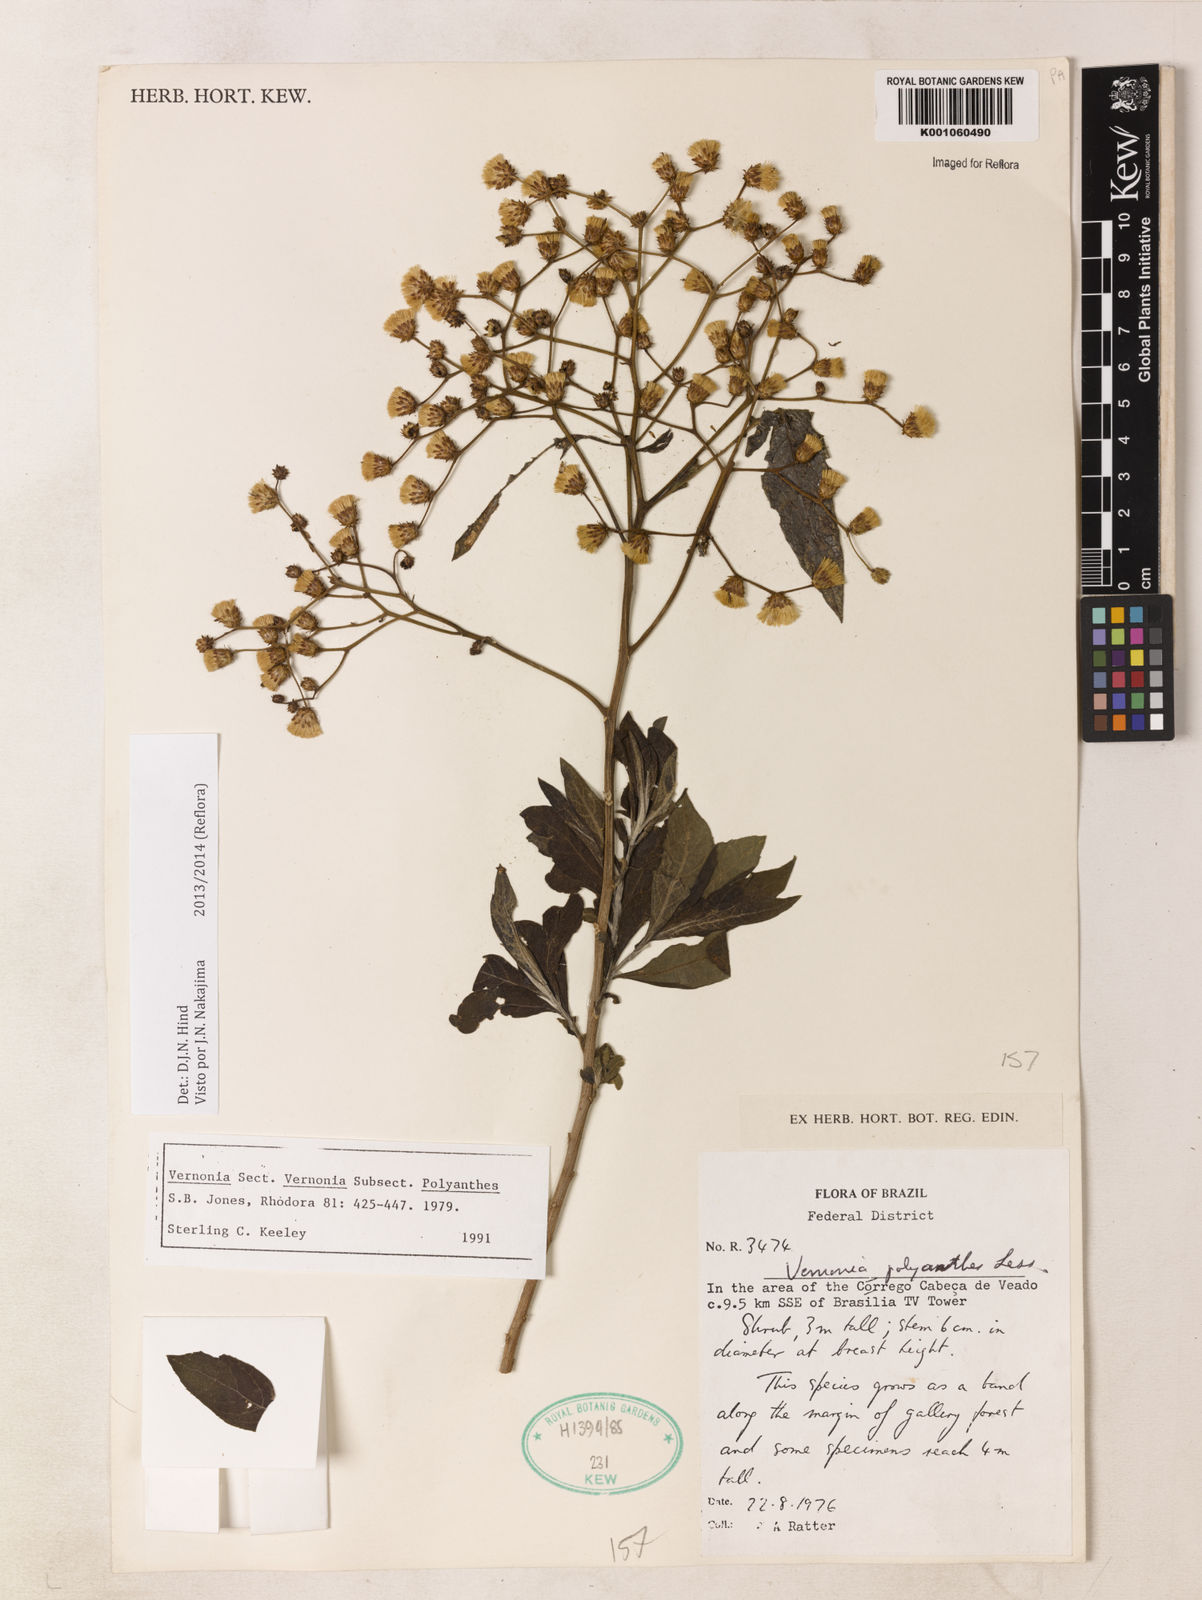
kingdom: Plantae
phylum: Tracheophyta
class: Magnoliopsida
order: Asterales
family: Asteraceae
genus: Vernonanthura
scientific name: Vernonanthura polyanthes
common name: Tree aster
